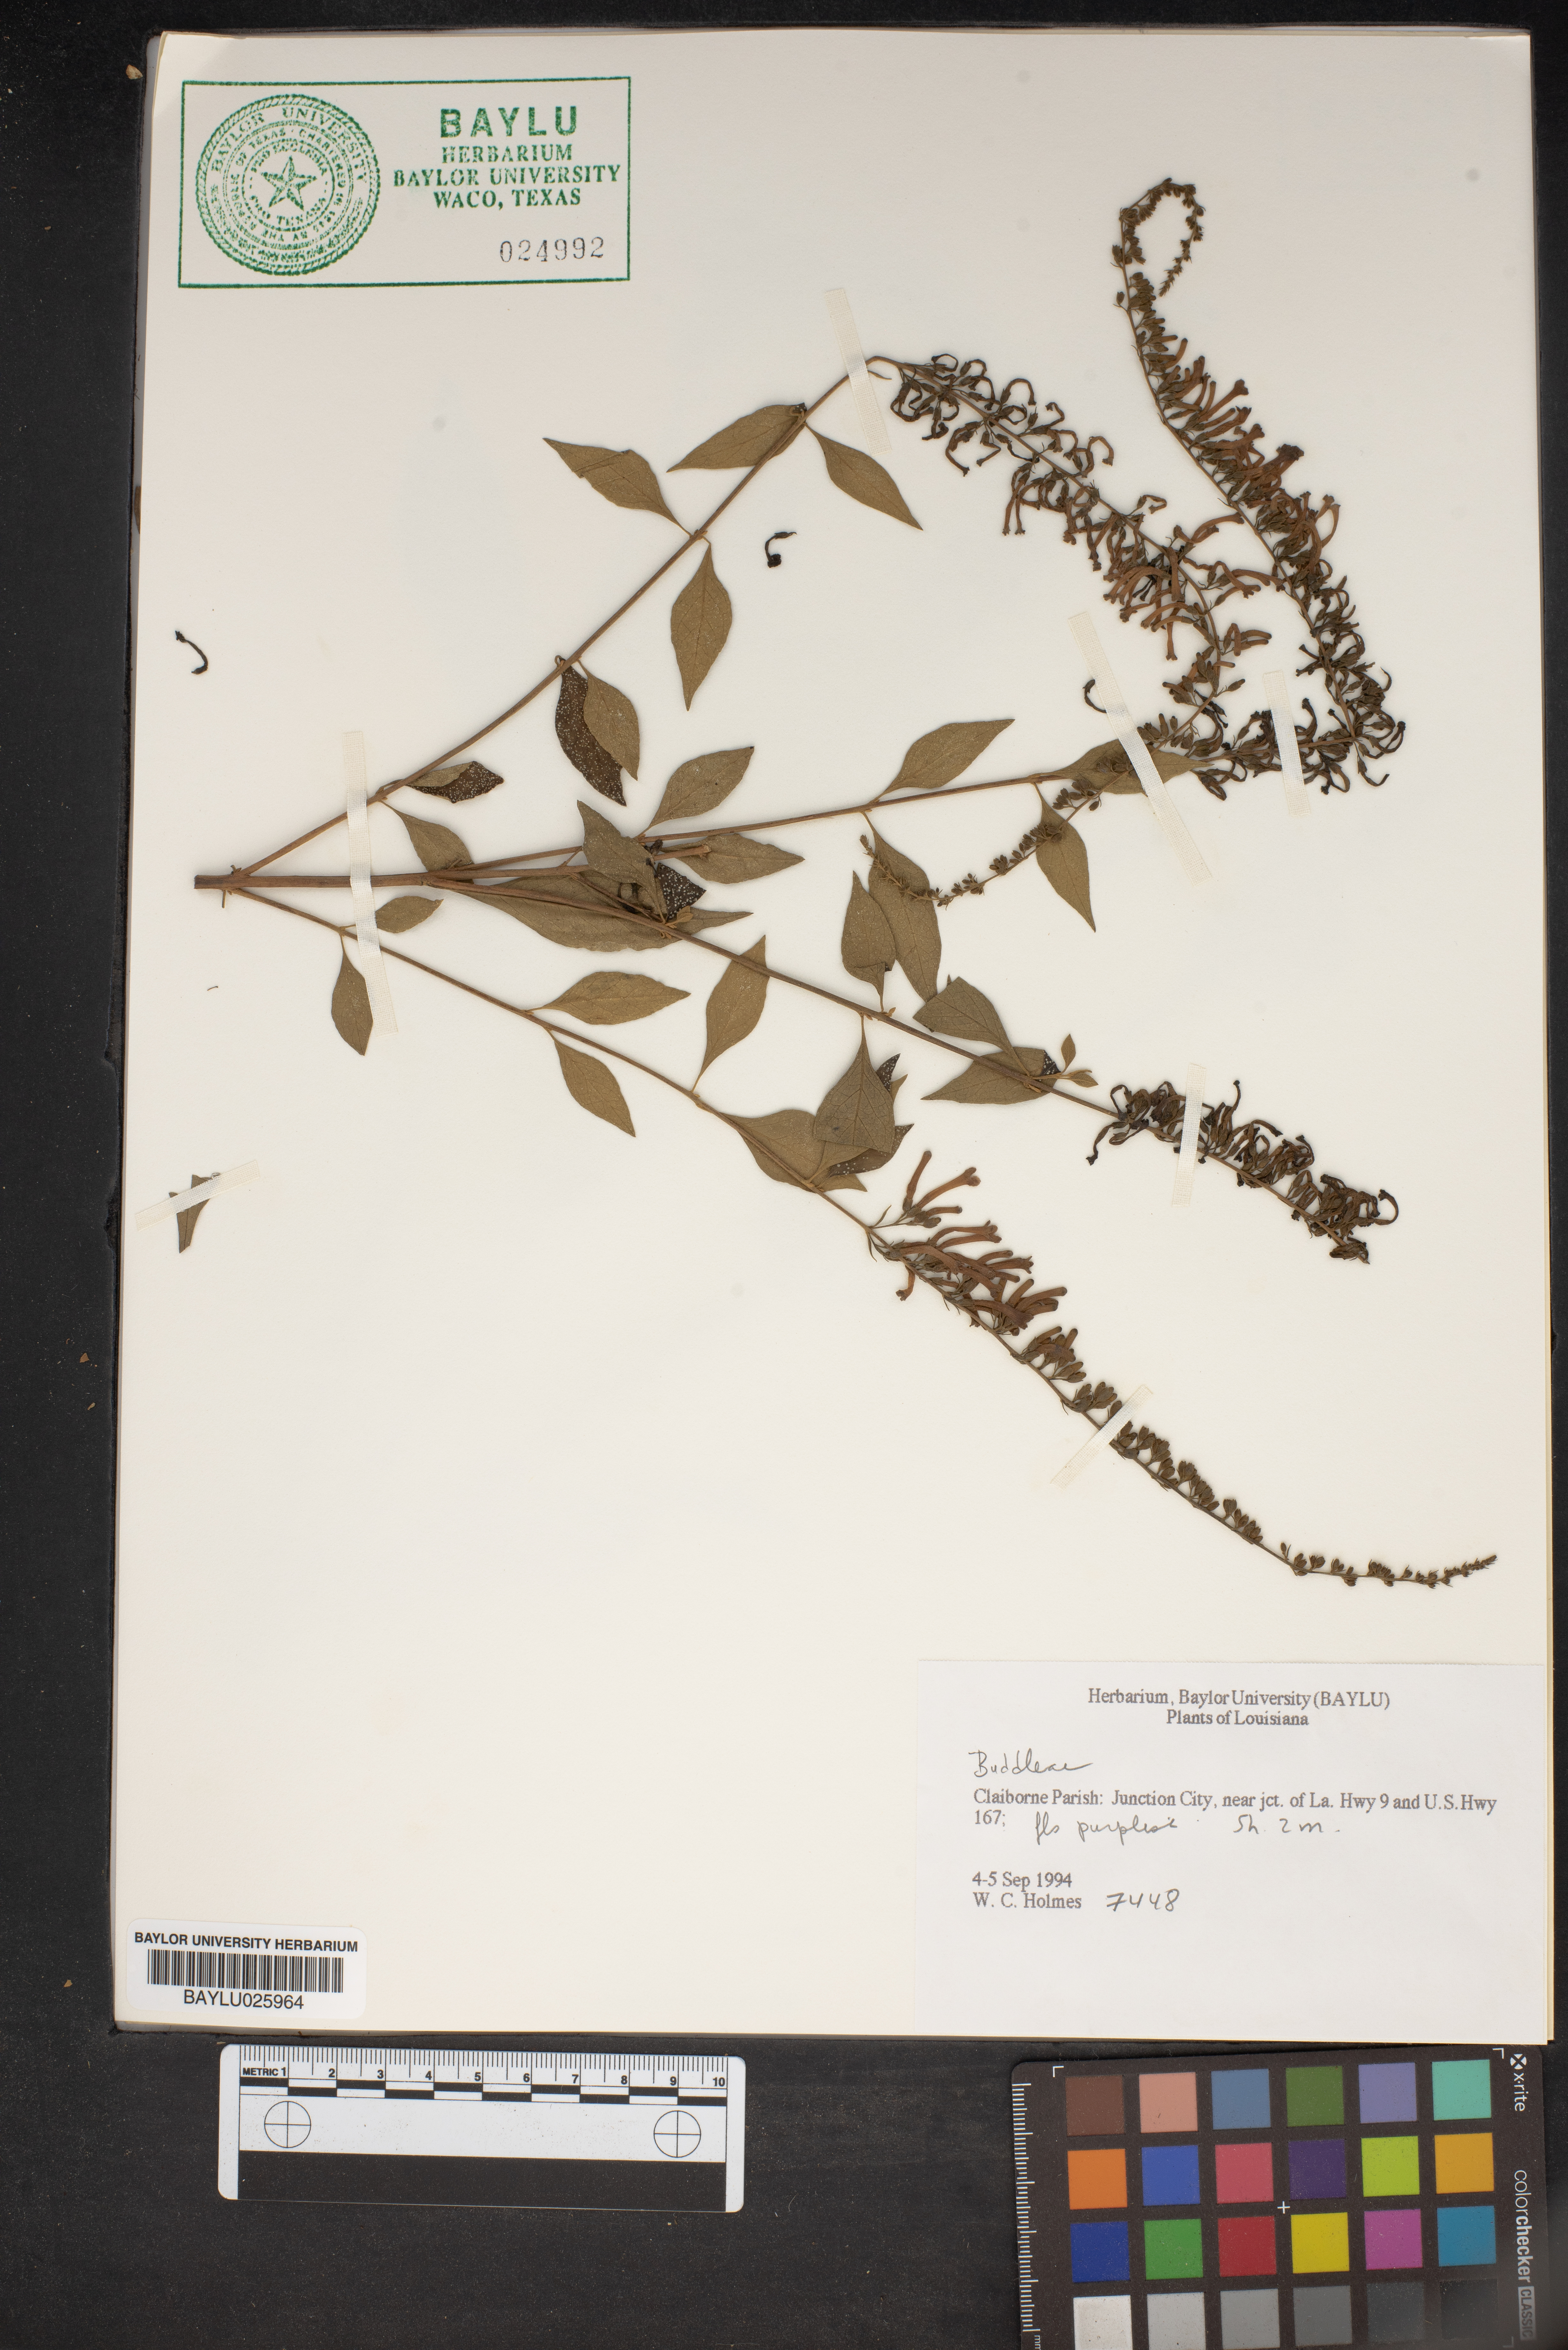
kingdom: Plantae
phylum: Tracheophyta
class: Magnoliopsida
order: Lamiales
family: Scrophulariaceae
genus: Buddleja
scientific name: Buddleja
